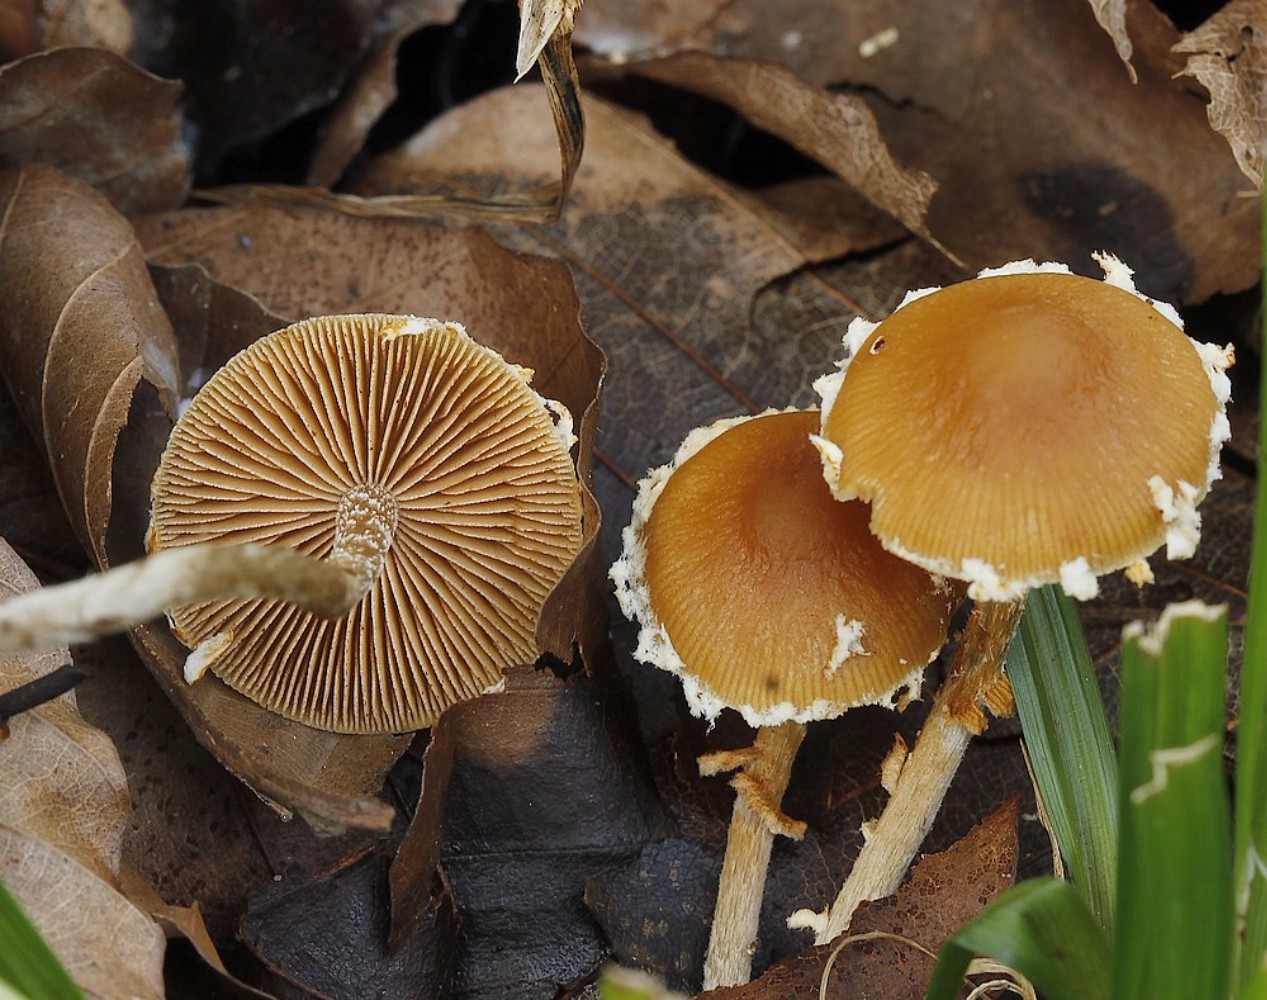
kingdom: Fungi
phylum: Basidiomycota
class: Agaricomycetes
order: Agaricales
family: Bolbitiaceae
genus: Pholiotina
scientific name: Pholiotina
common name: dansehat
